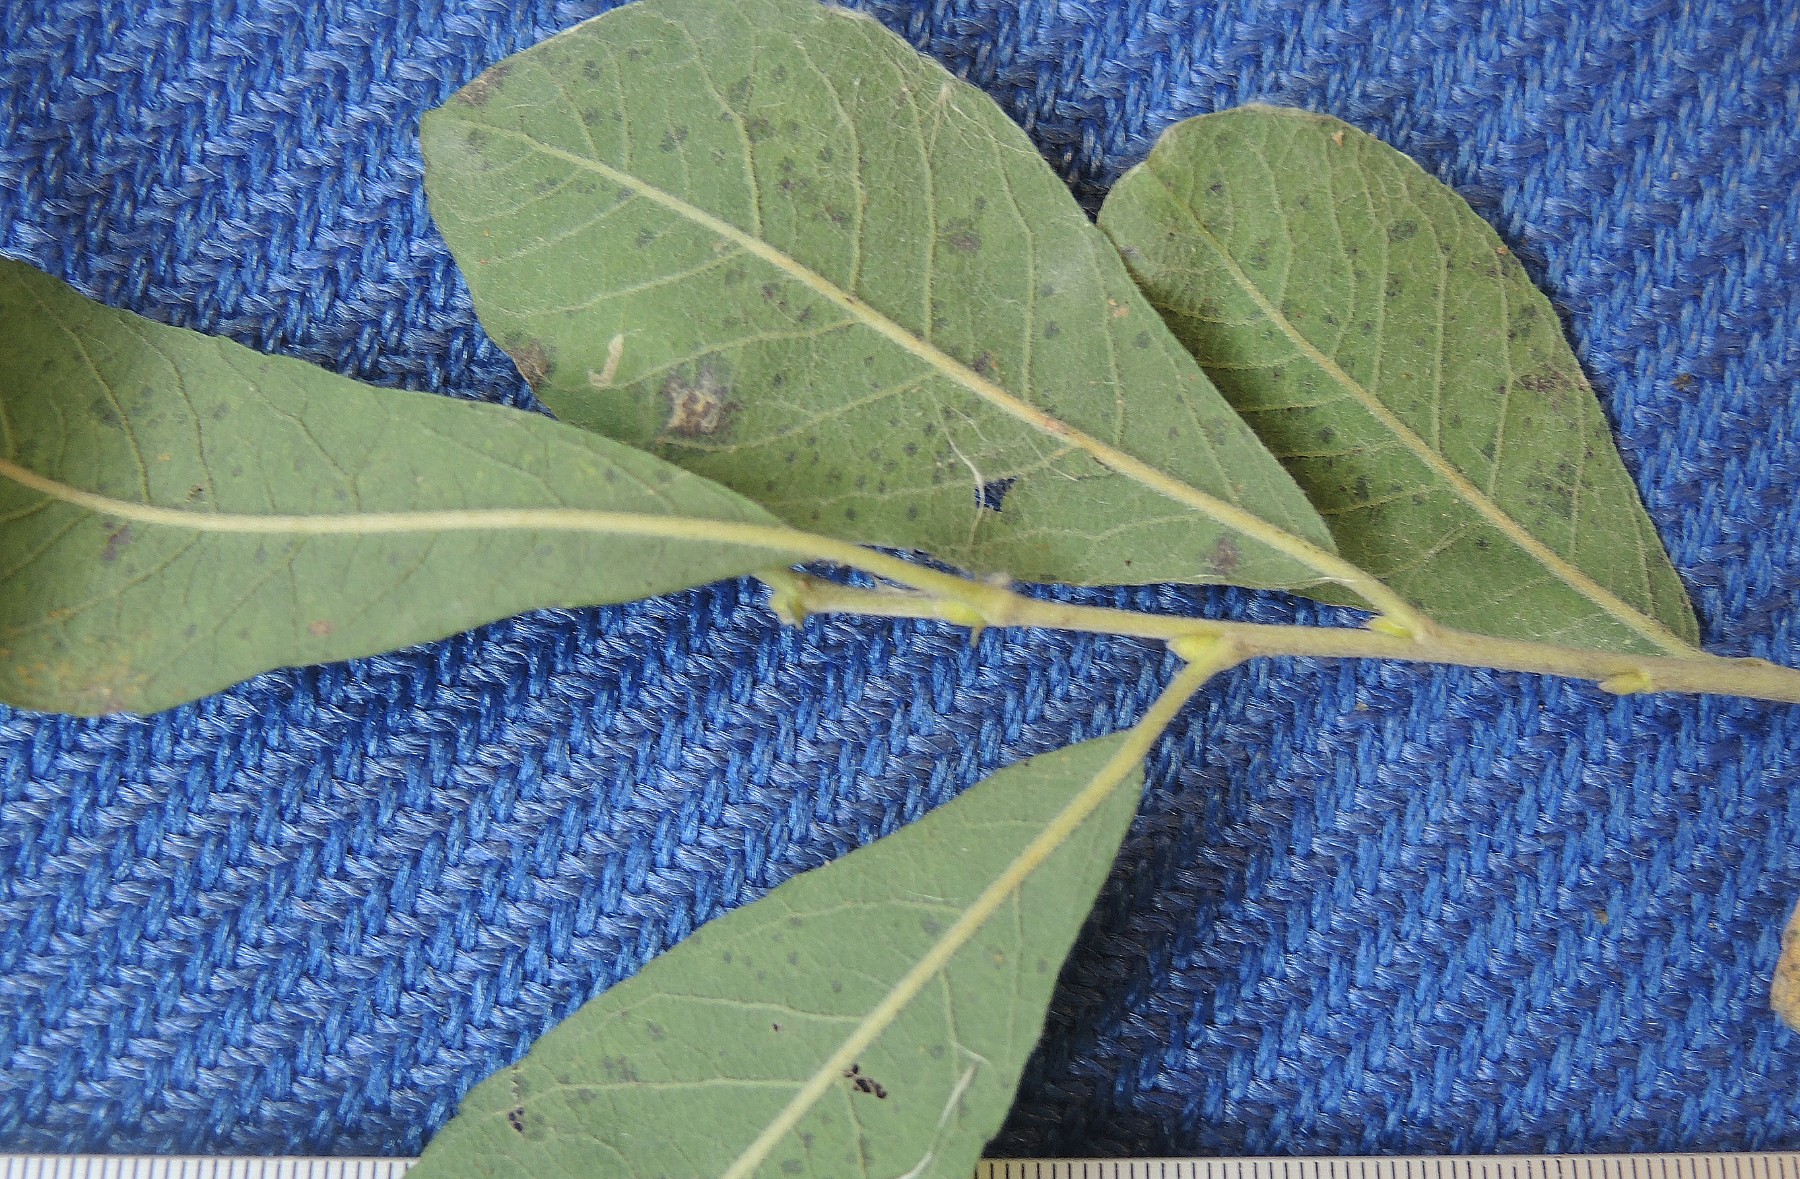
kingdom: Fungi
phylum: Ascomycota
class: Leotiomycetes
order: Helotiales
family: Drepanopezizaceae
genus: Drepanopeziza
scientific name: Drepanopeziza triandrae
